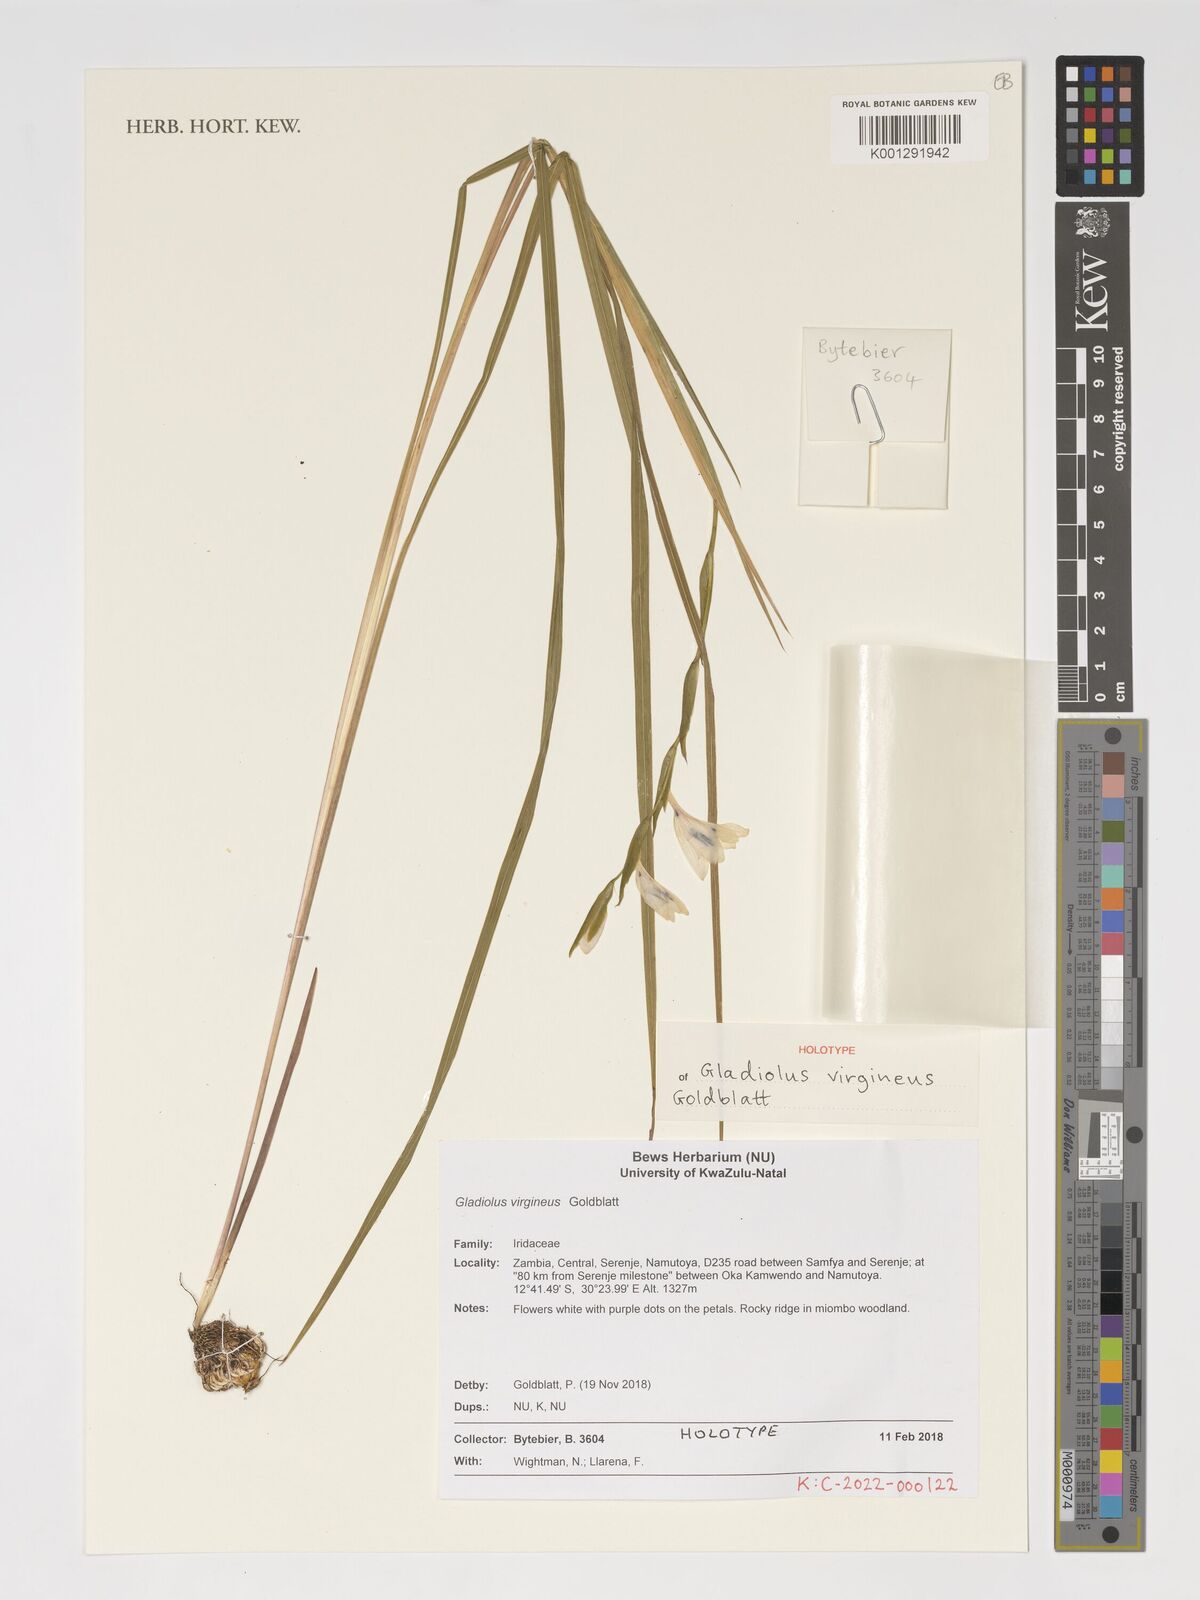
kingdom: Plantae
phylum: Tracheophyta
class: Liliopsida
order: Asparagales
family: Iridaceae
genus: Gladiolus
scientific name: Gladiolus virgineus
